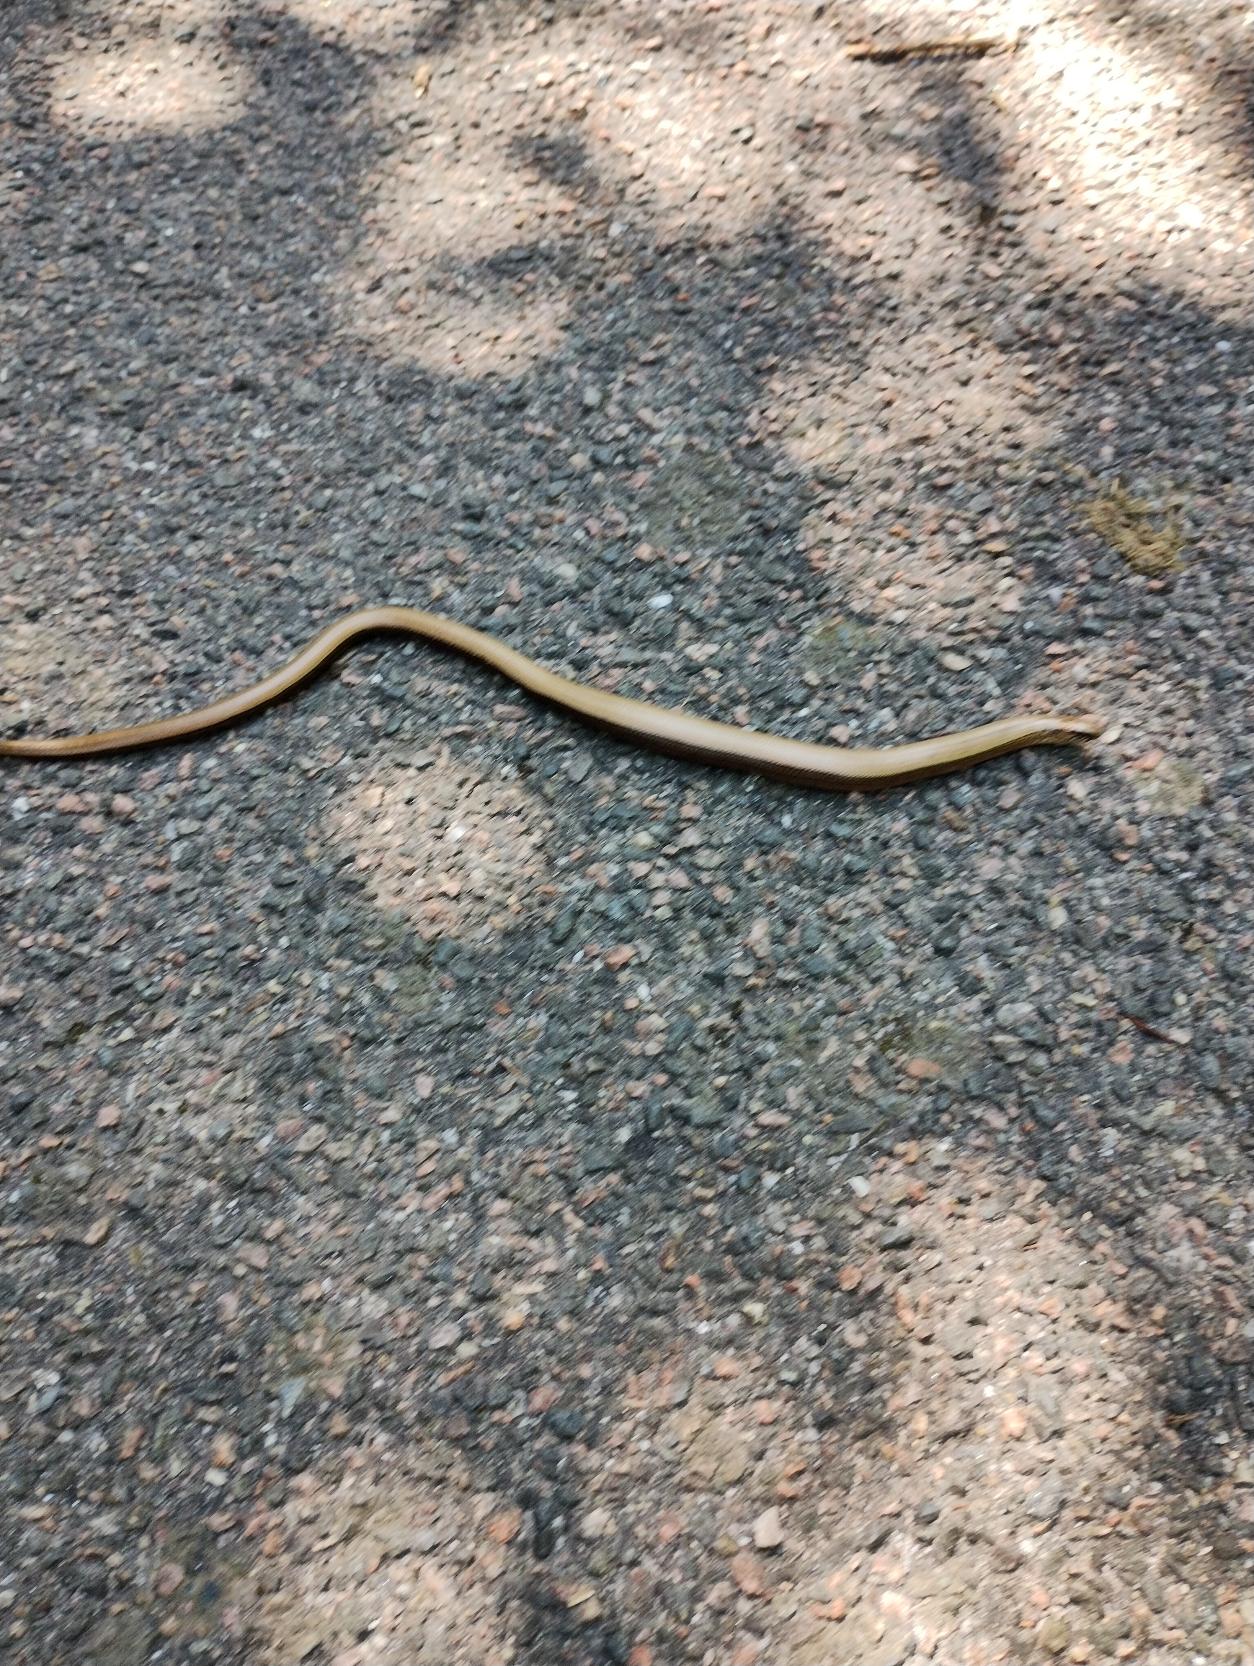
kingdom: Animalia
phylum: Chordata
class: Squamata
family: Anguidae
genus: Anguis
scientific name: Anguis fragilis
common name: Stålorm
